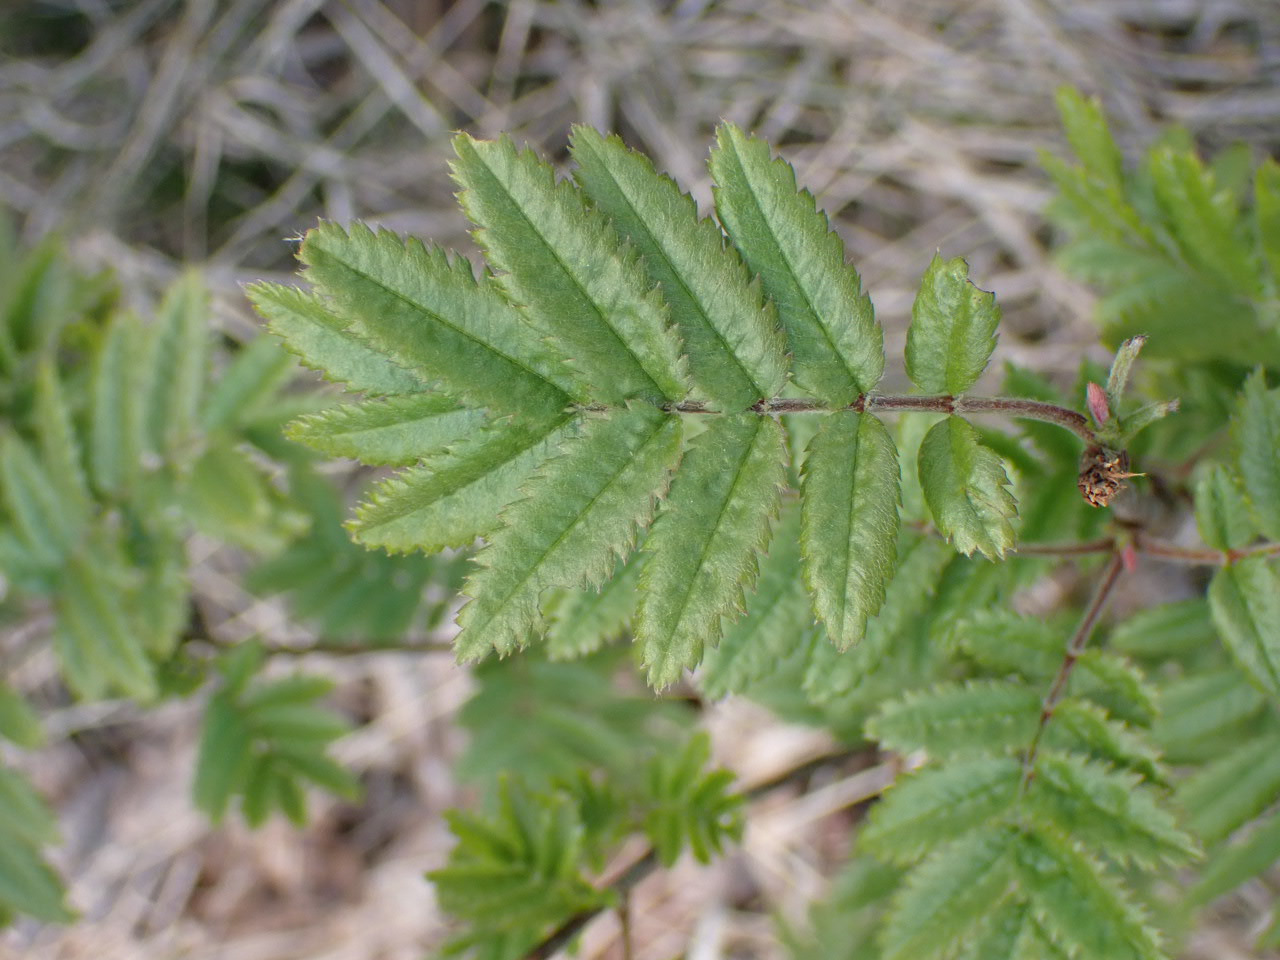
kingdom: Plantae
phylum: Tracheophyta
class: Magnoliopsida
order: Rosales
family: Rosaceae
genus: Sorbus
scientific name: Sorbus aucuparia
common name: Almindelig røn
